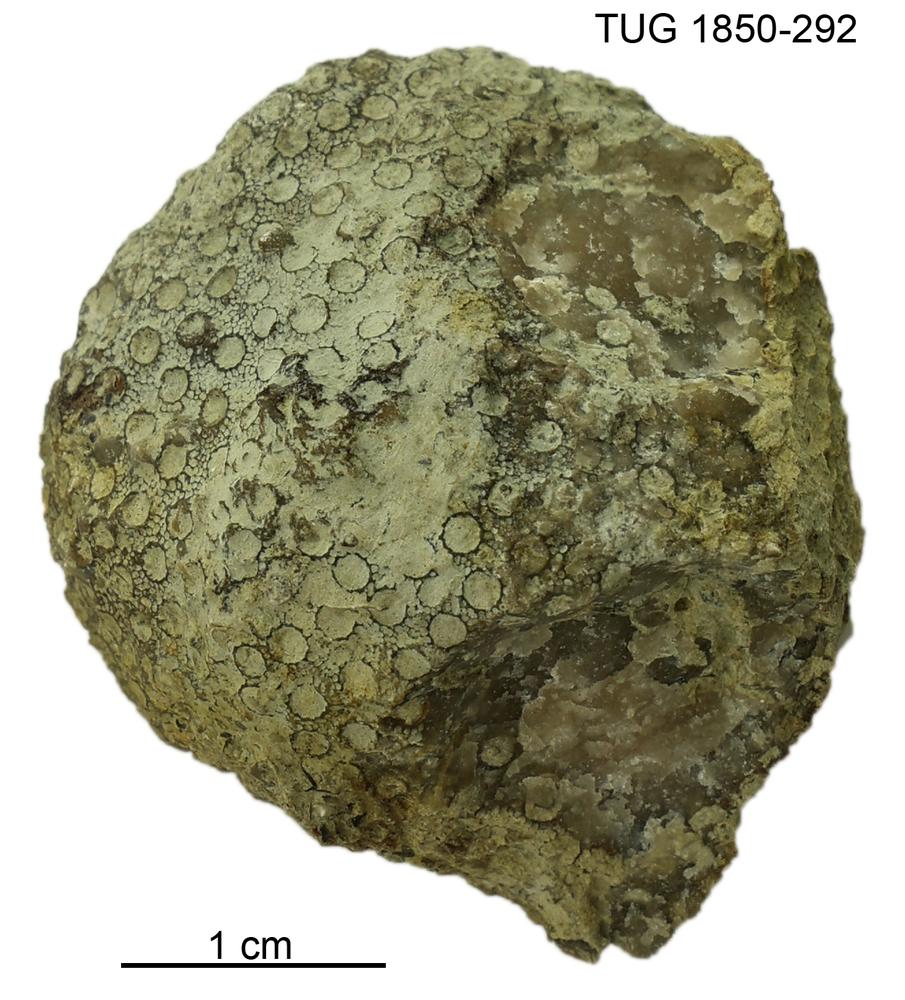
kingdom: Animalia
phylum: Cnidaria
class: Anthozoa
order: Heliolitina
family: Heliolitidae
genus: Heliolites
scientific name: Heliolites
